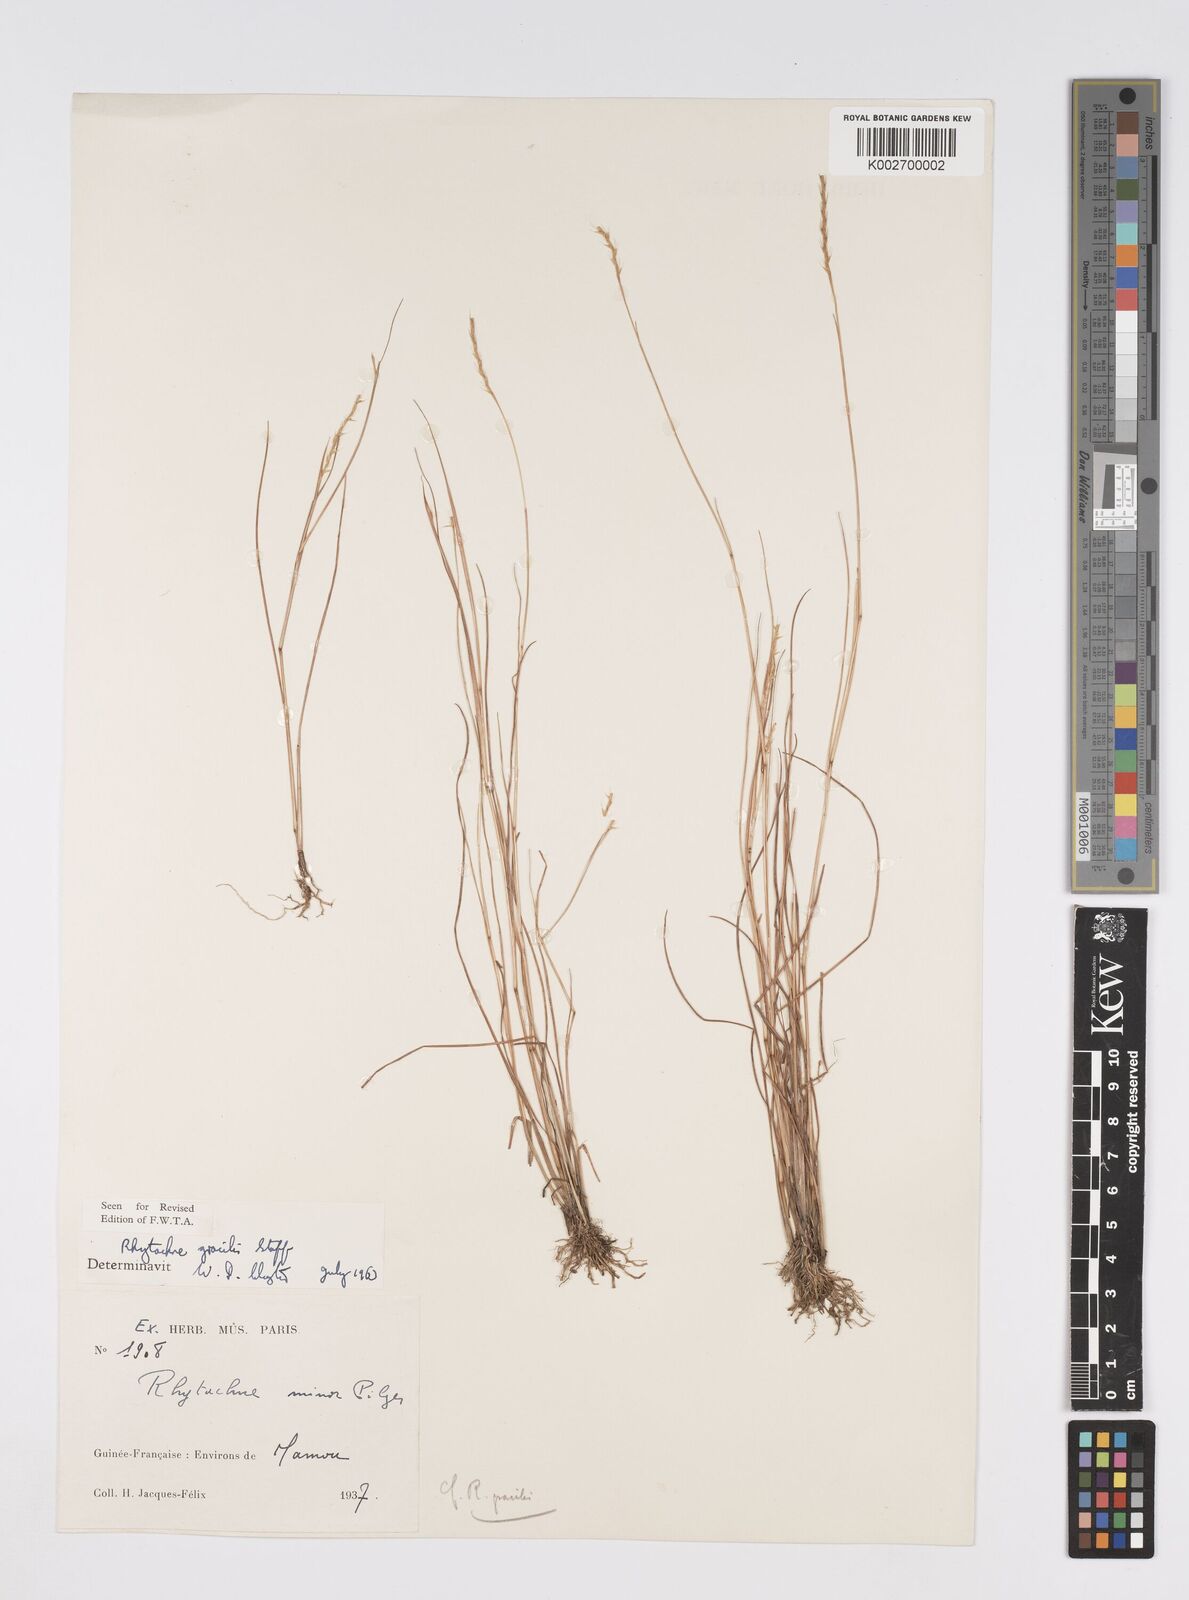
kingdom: Plantae
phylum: Tracheophyta
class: Liliopsida
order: Poales
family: Poaceae
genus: Rhytachne
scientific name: Rhytachne gracilis
